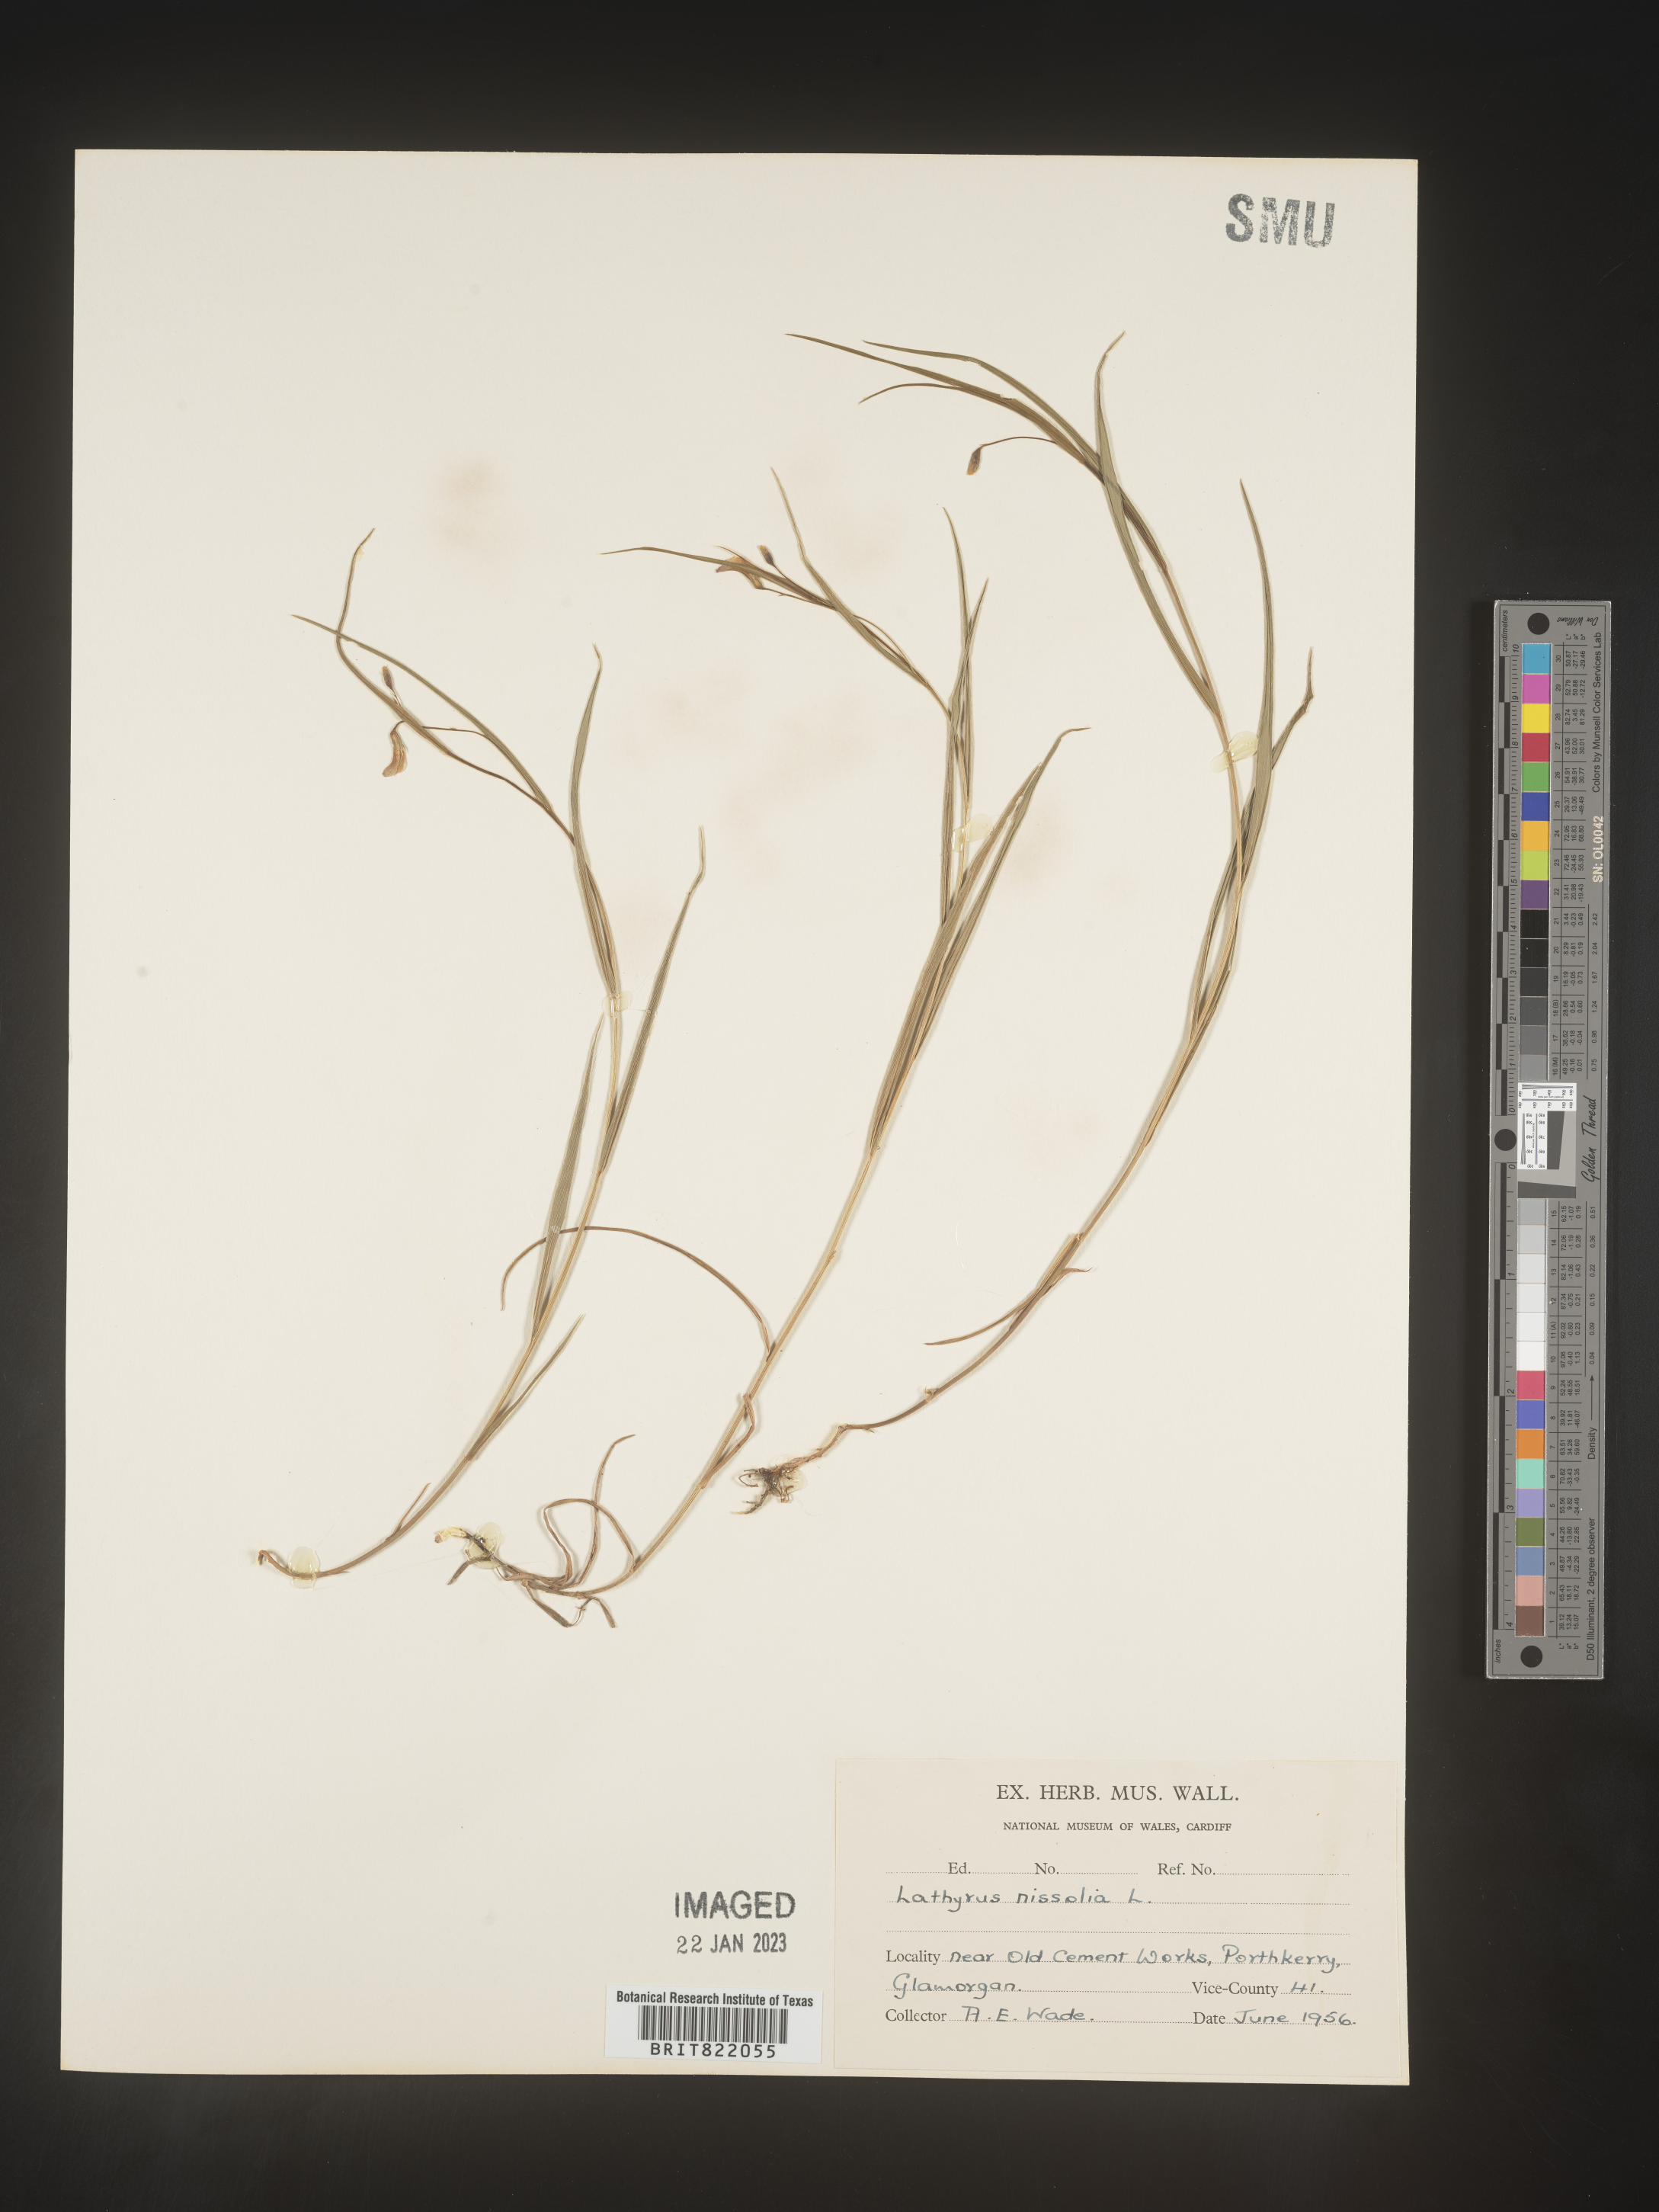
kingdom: Plantae
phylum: Tracheophyta
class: Magnoliopsida
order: Fabales
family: Fabaceae
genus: Lathyrus
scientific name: Lathyrus
